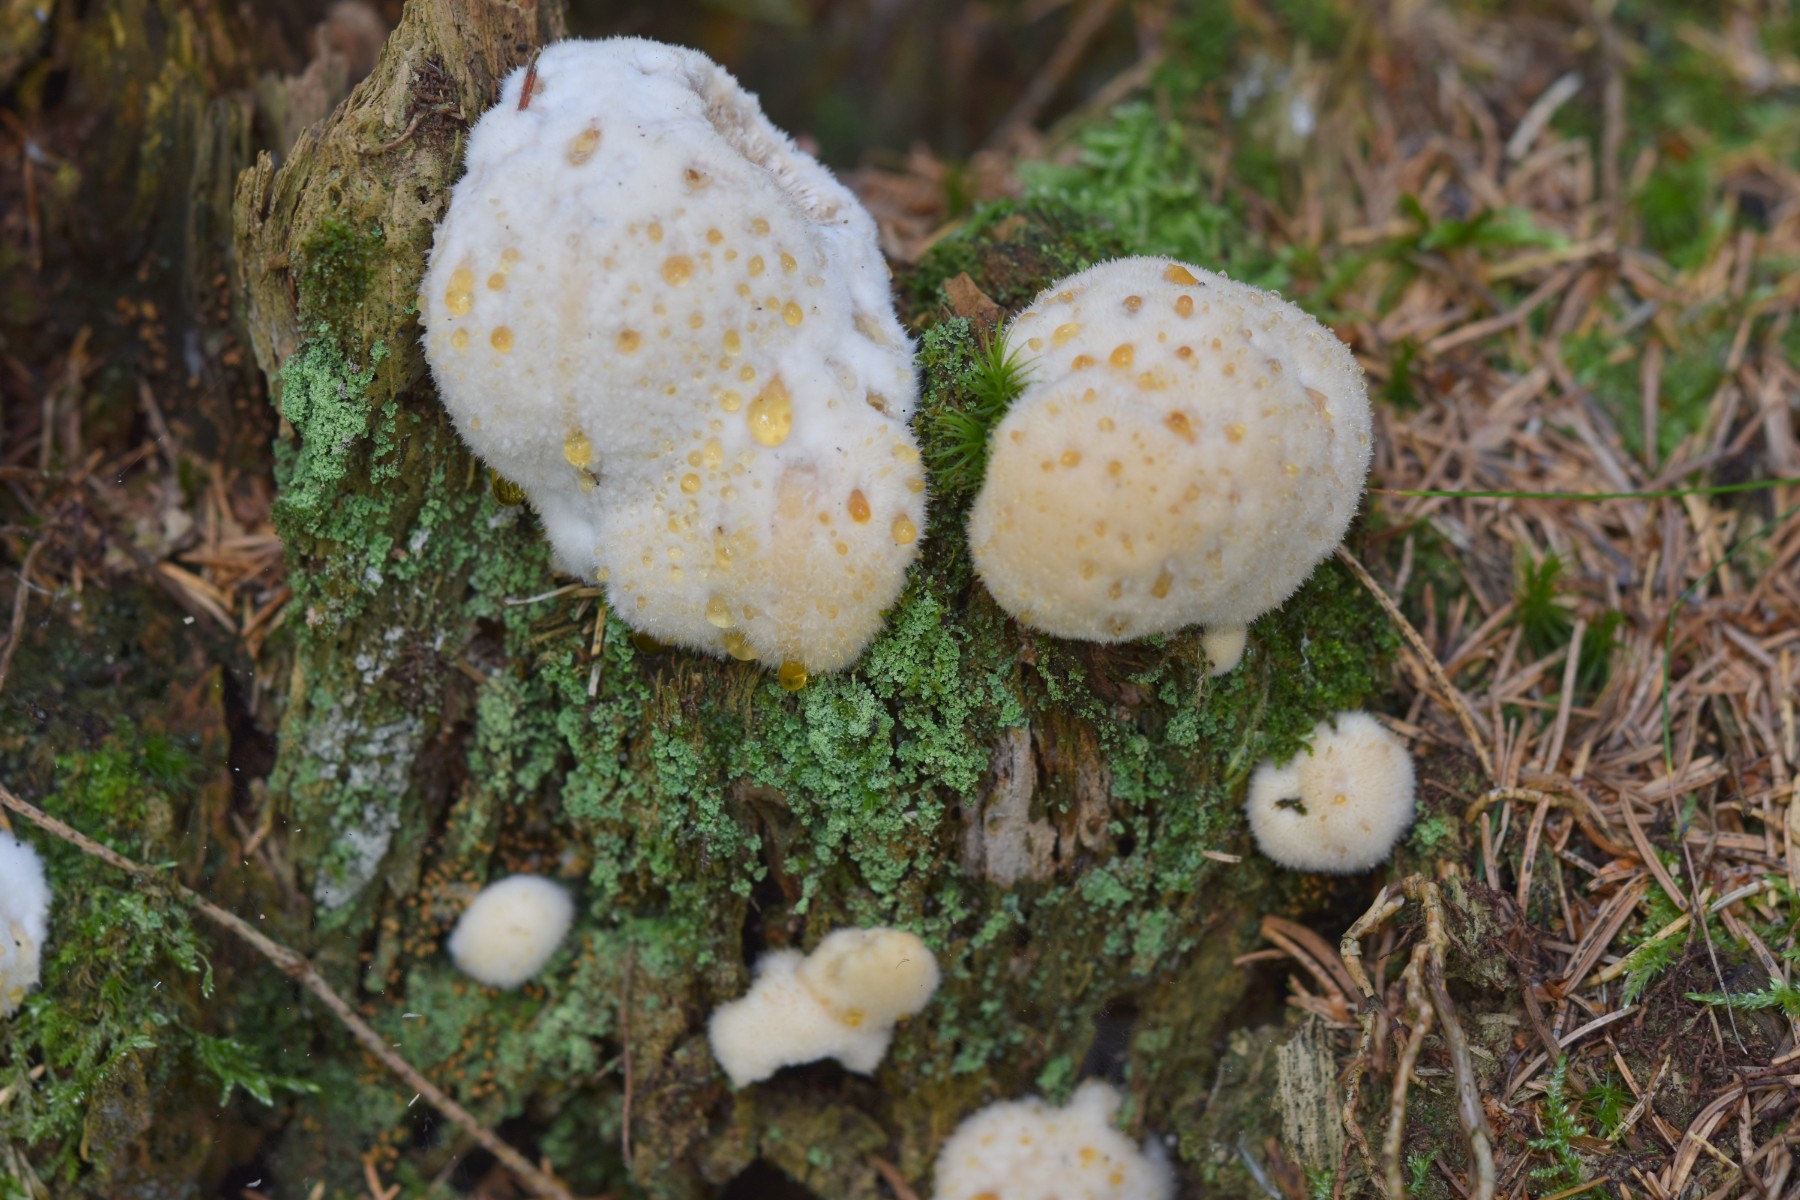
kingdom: Fungi
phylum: Basidiomycota
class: Agaricomycetes
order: Polyporales
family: Dacryobolaceae
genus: Postia
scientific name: Postia ptychogaster
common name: støvende kødporesvamp
